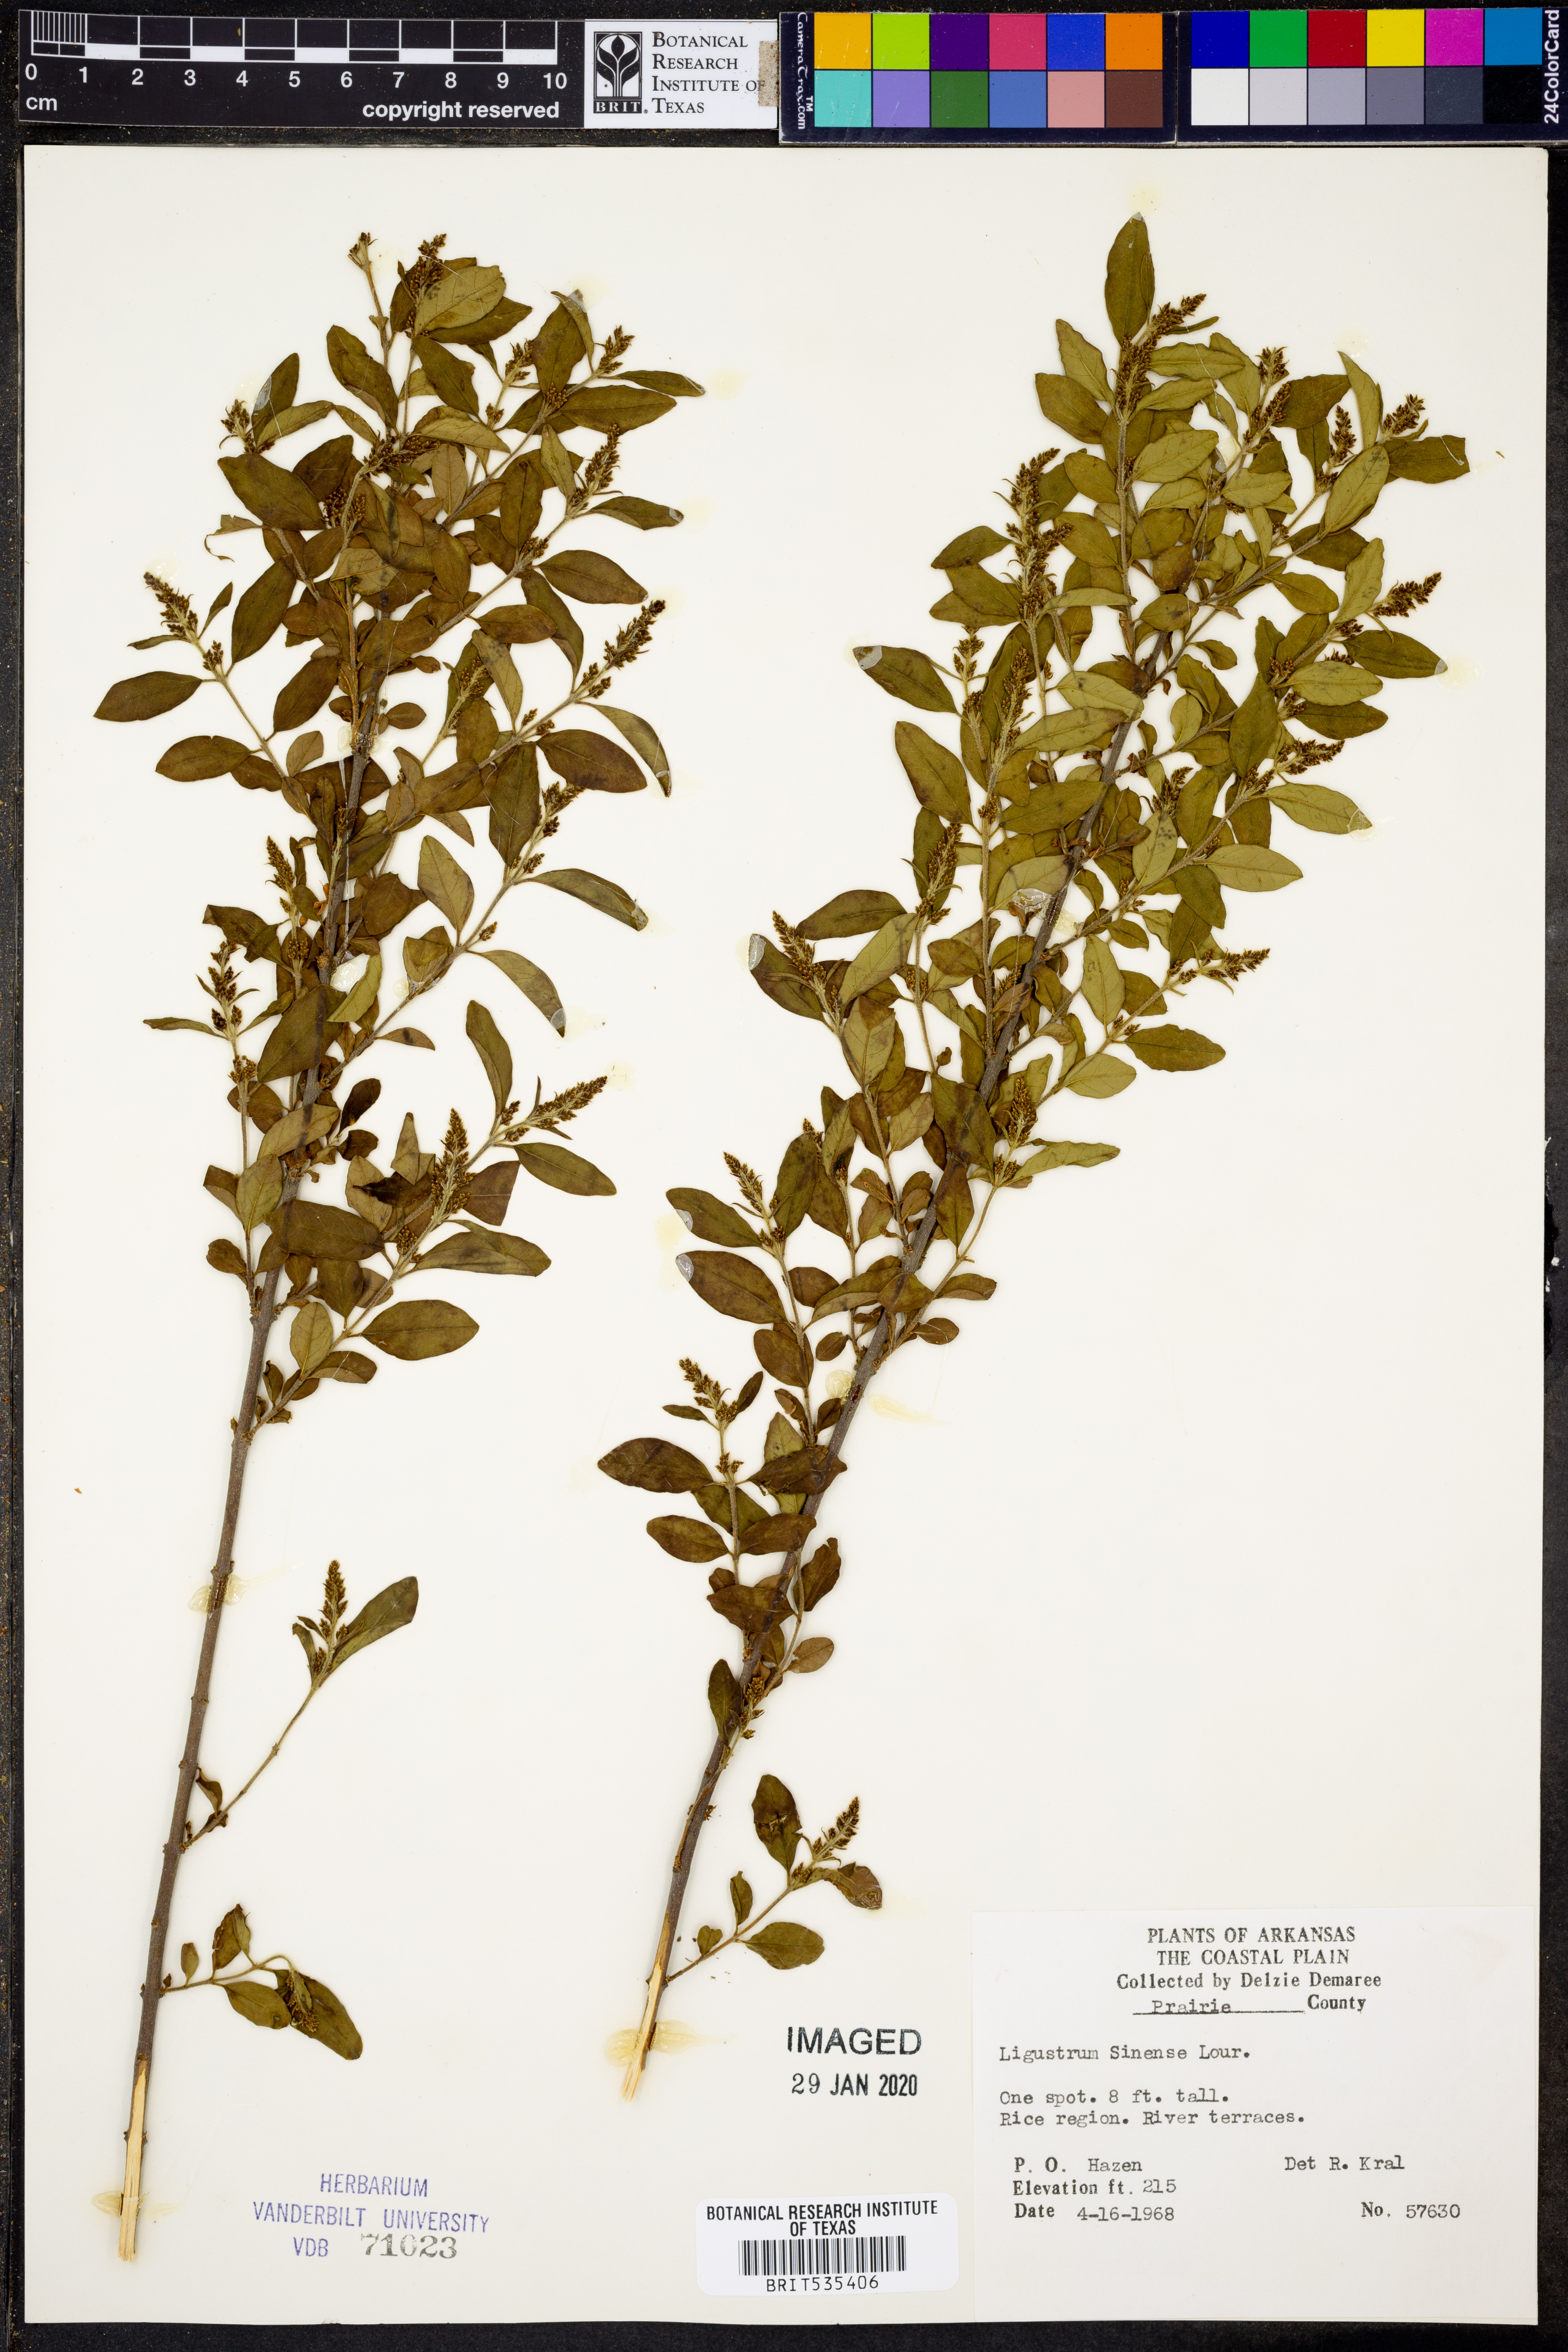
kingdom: Plantae
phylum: Tracheophyta
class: Magnoliopsida
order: Lamiales
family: Oleaceae
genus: Ligustrum
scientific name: Ligustrum sinense
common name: Chinese privet
